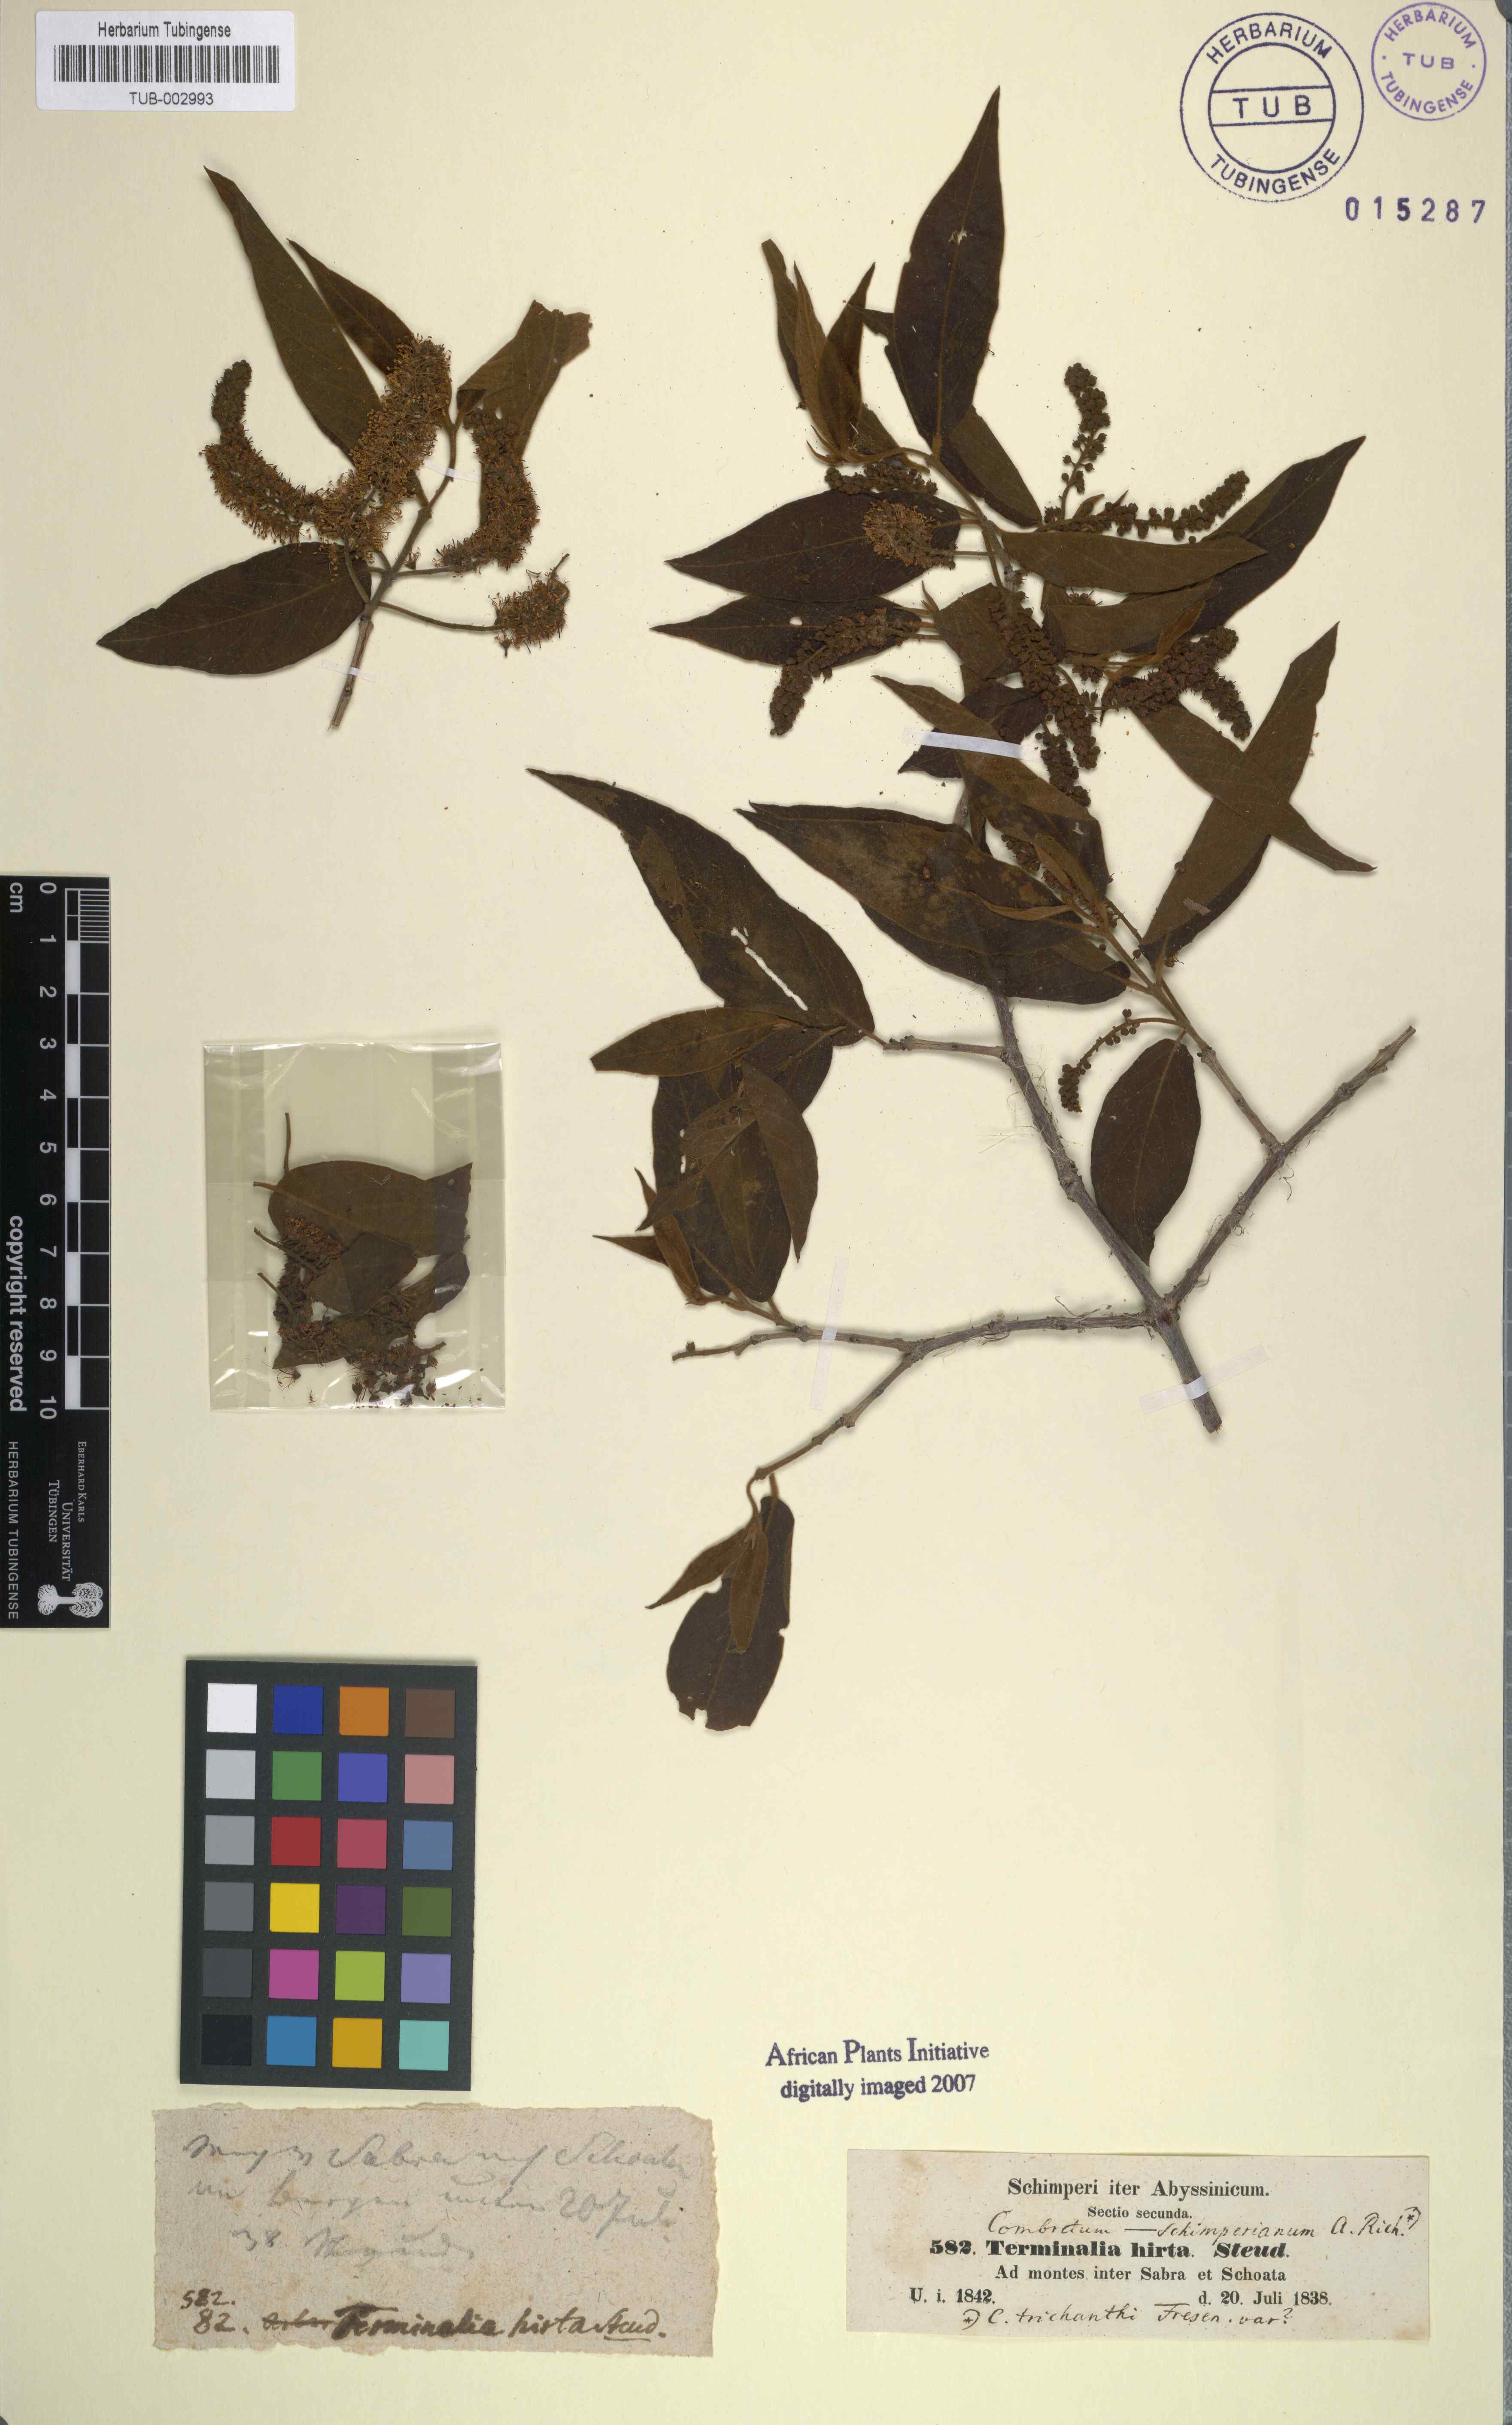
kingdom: Plantae
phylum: Tracheophyta
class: Magnoliopsida
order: Myrtales
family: Combretaceae
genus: Combretum
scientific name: Combretum molle
